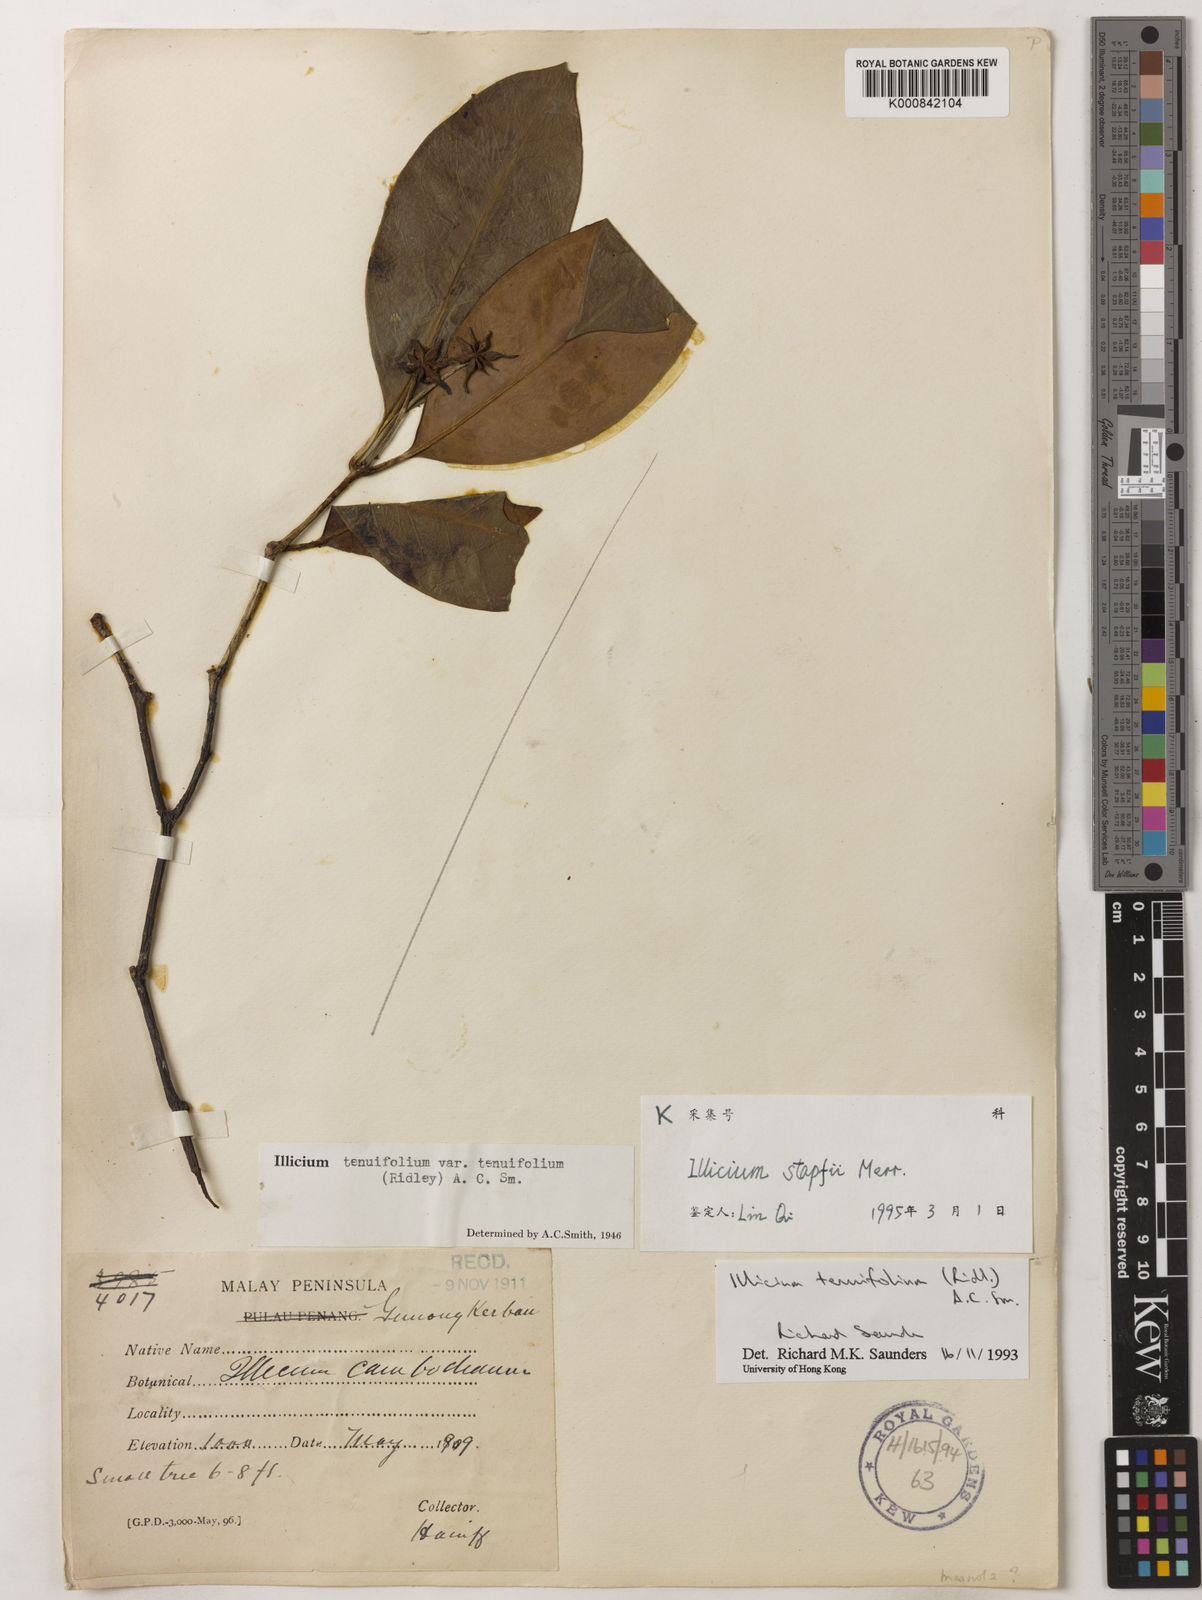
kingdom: Plantae
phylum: Tracheophyta
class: Magnoliopsida
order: Austrobaileyales
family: Schisandraceae
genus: Illicium
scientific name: Illicium stapfii
